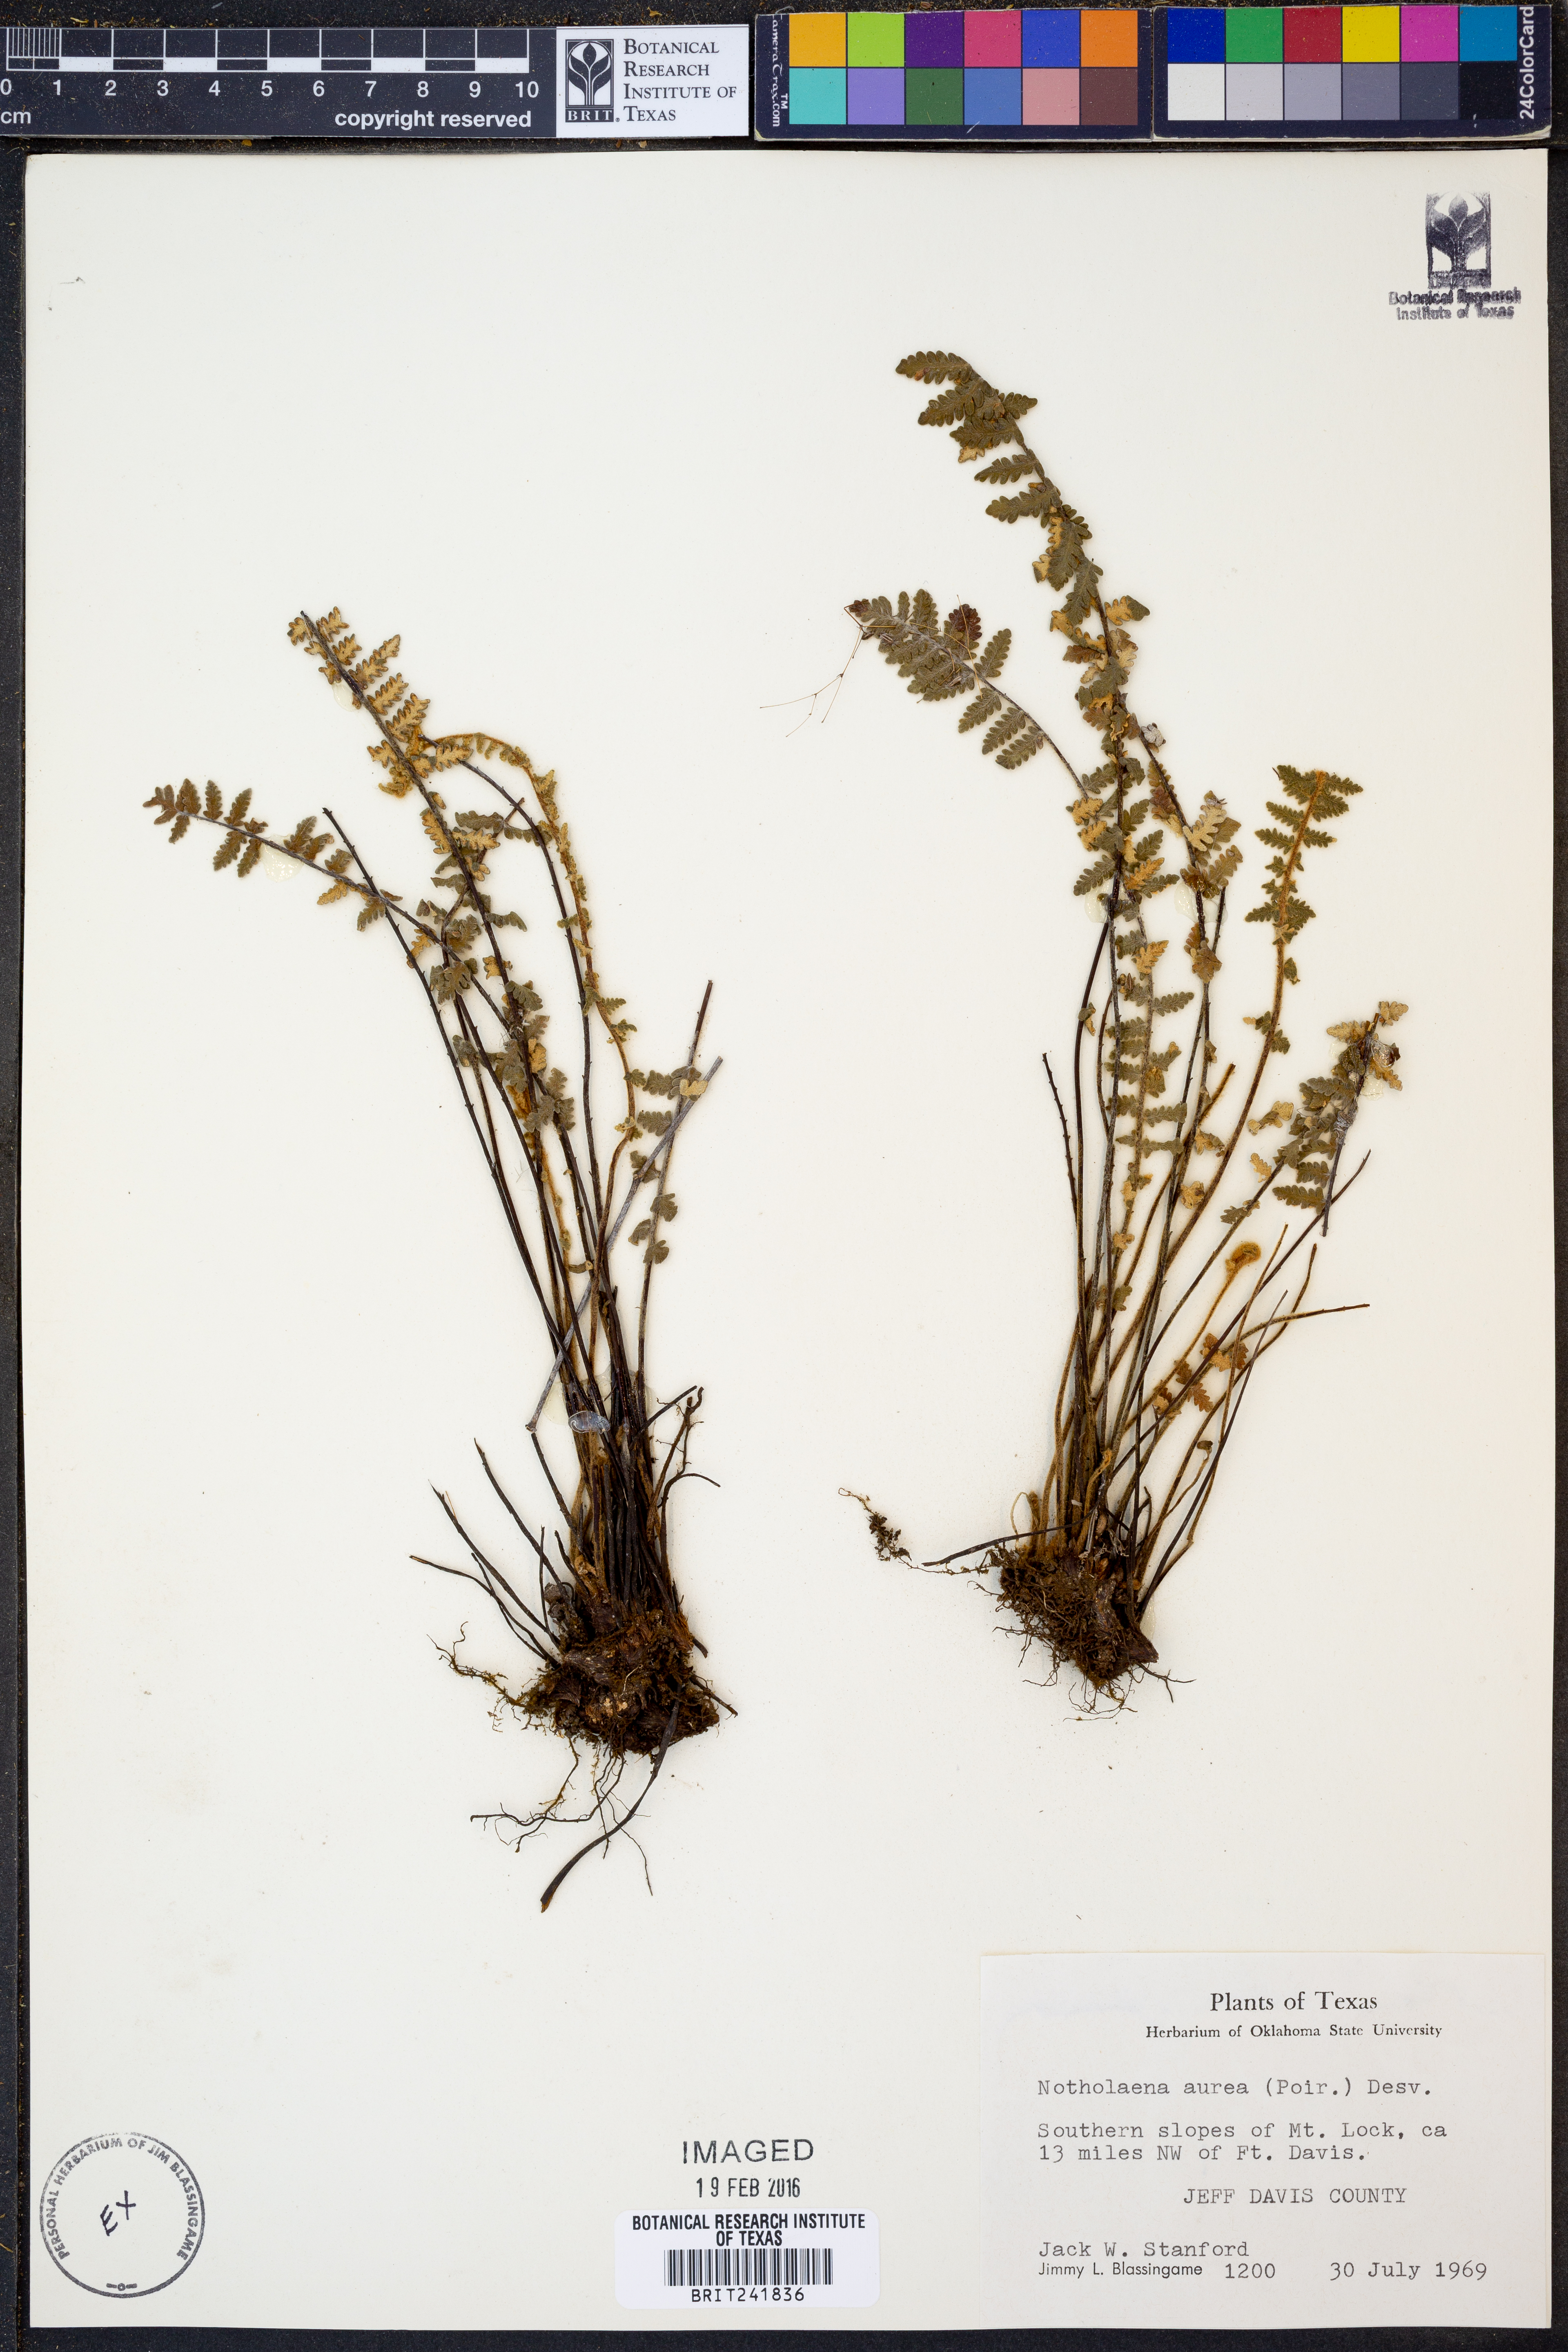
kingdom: Plantae
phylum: Tracheophyta
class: Polypodiopsida
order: Polypodiales
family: Pteridaceae
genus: Myriopteris
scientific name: Myriopteris aurea
